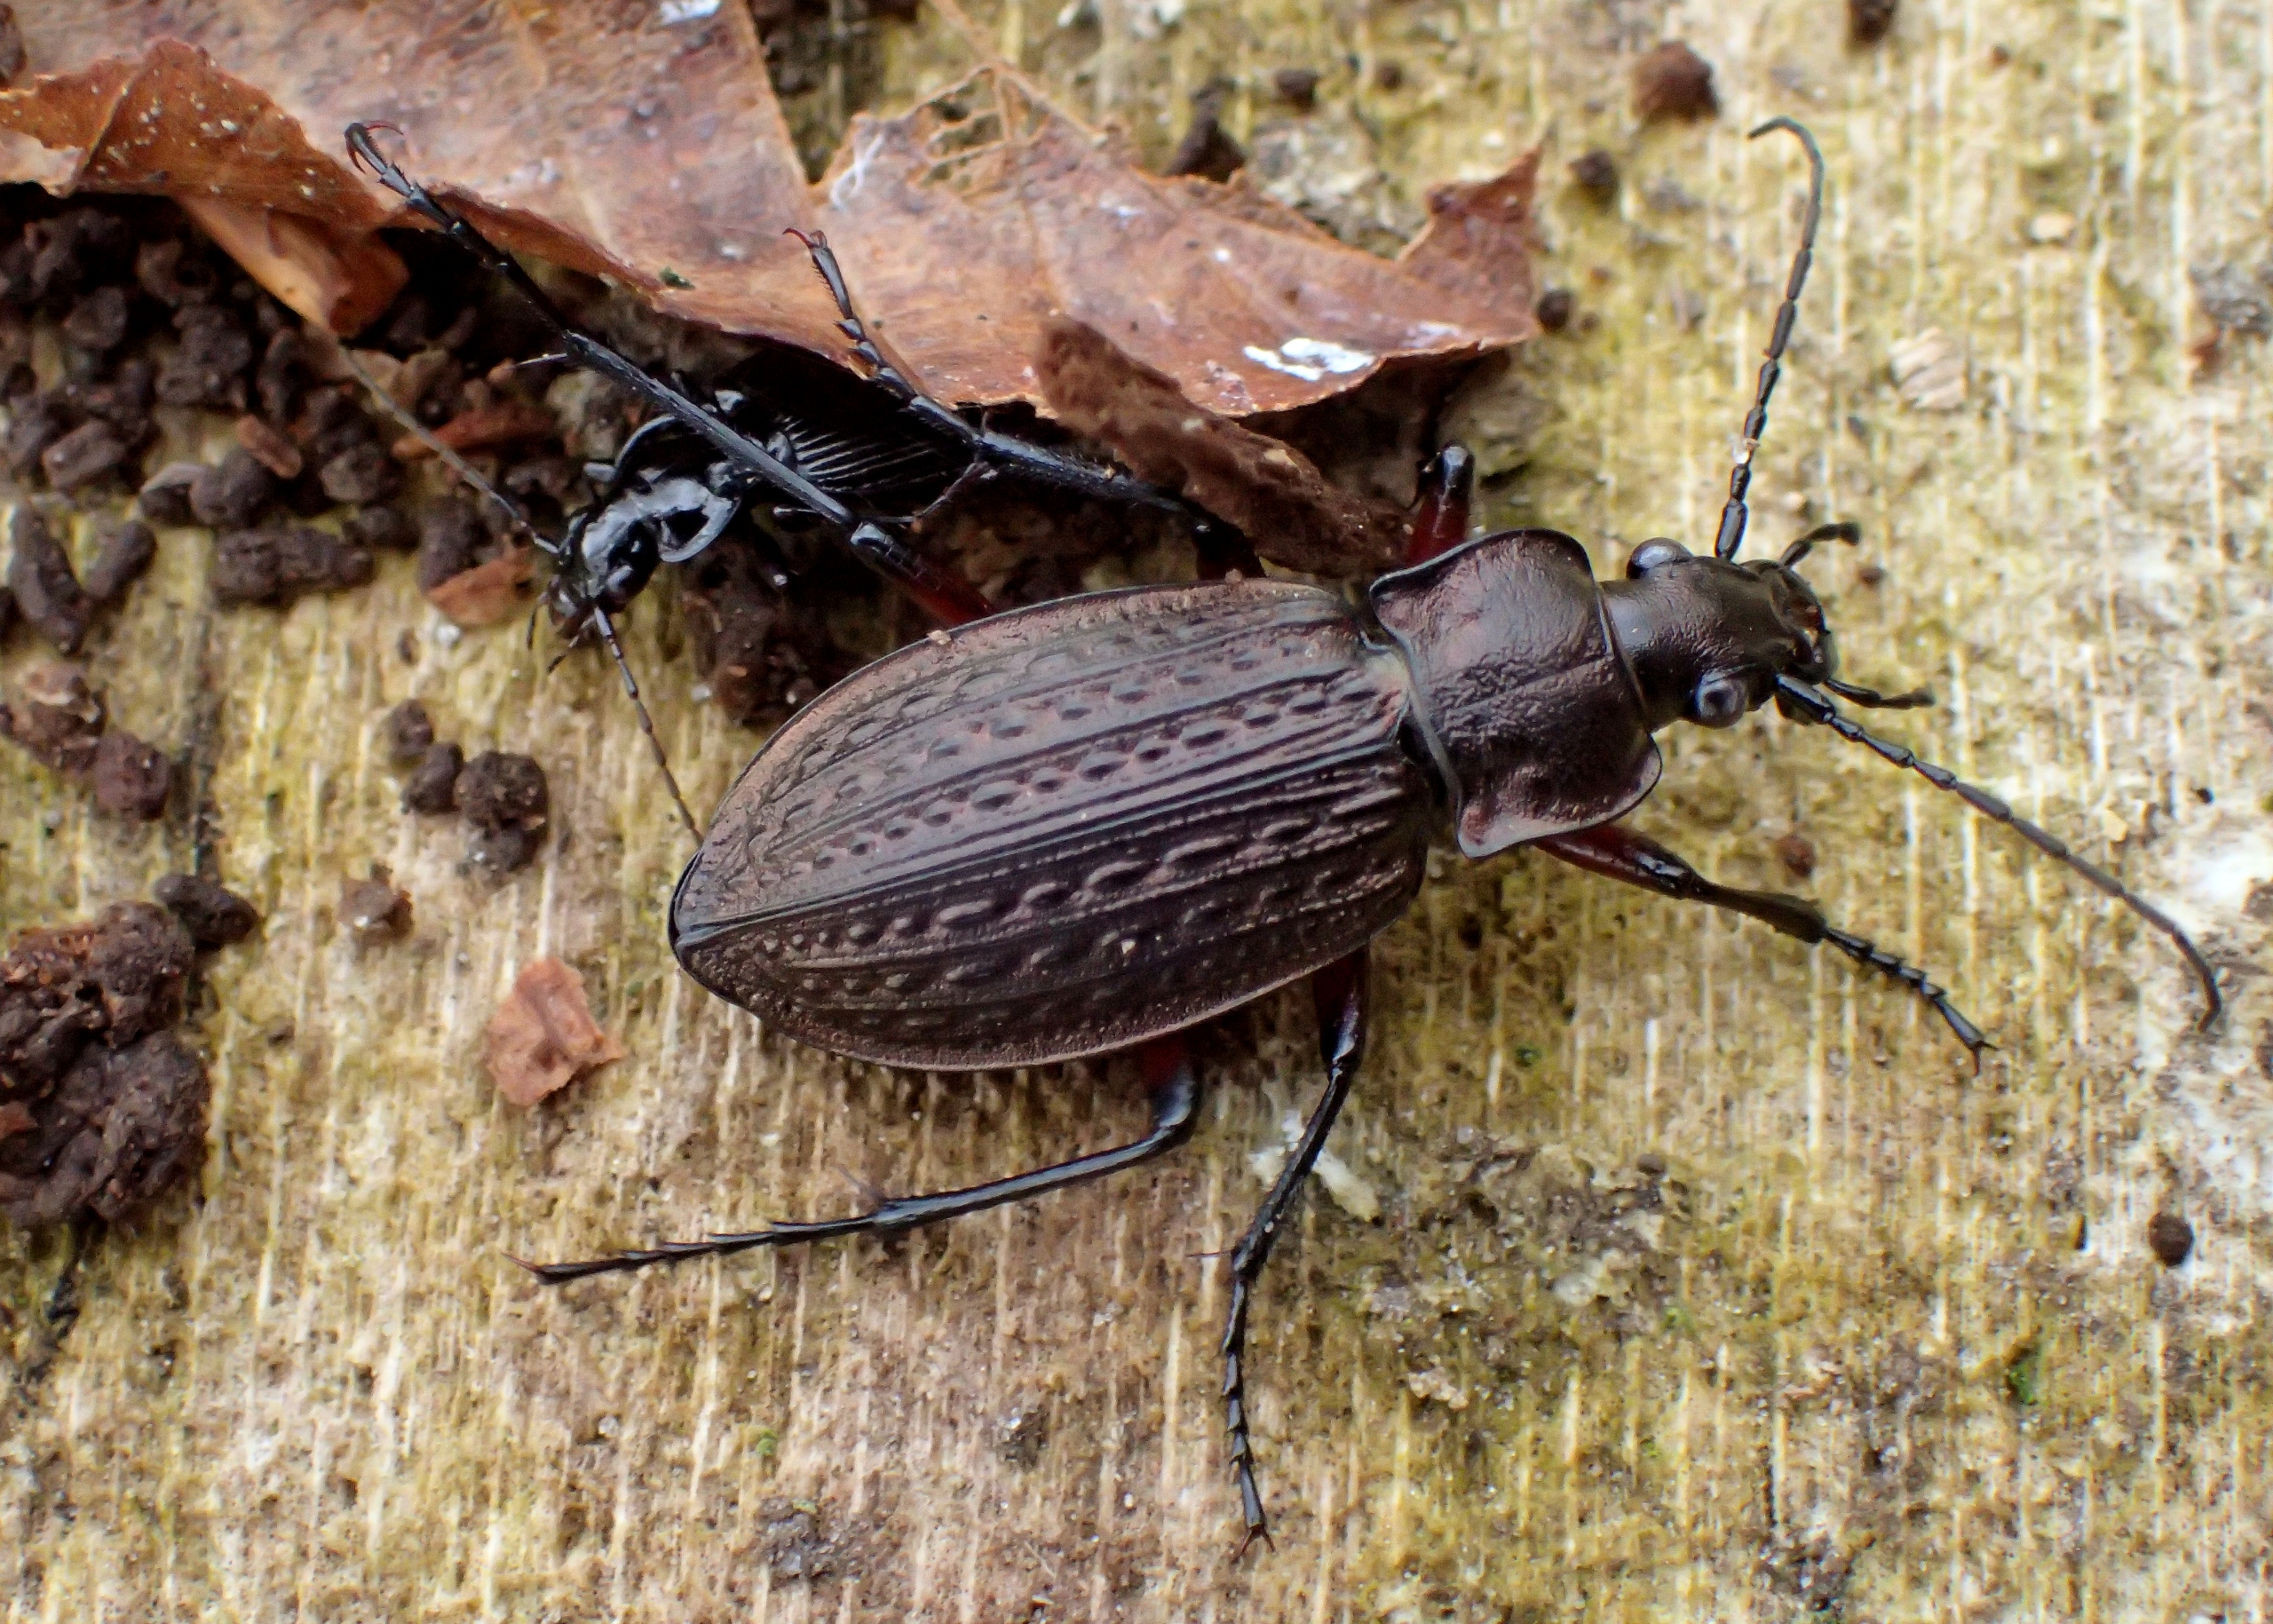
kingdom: Animalia
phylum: Arthropoda
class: Insecta
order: Coleoptera
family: Carabidae
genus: Carabus
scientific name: Carabus granulatus
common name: Kornet løber
